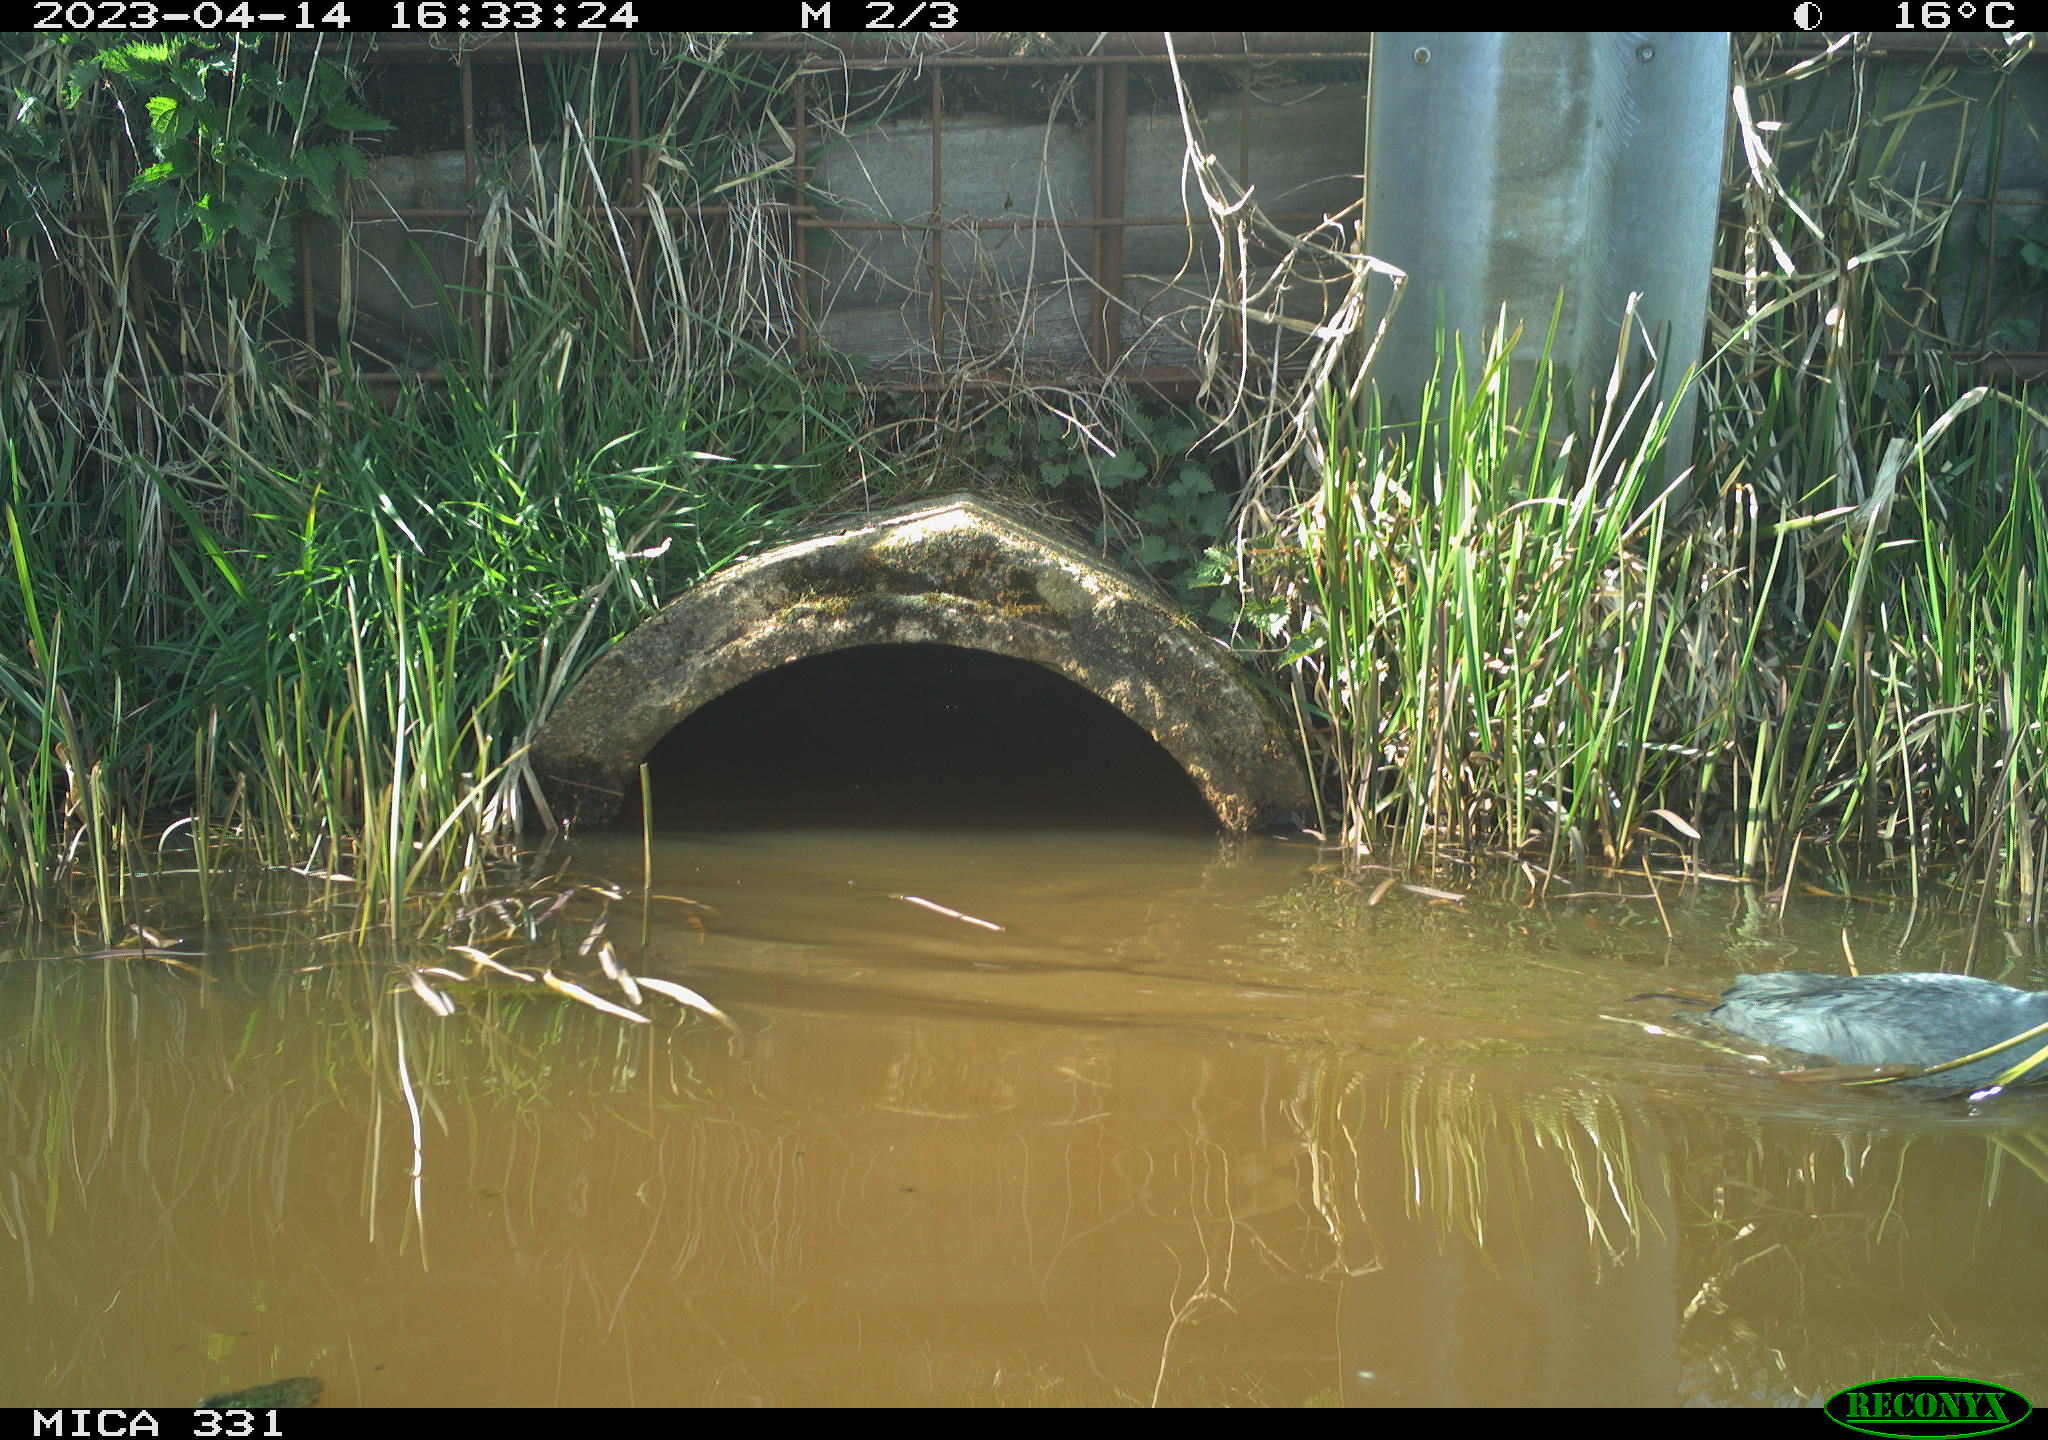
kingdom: Animalia
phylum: Chordata
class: Aves
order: Gruiformes
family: Rallidae
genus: Fulica
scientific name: Fulica atra
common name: Eurasian coot
